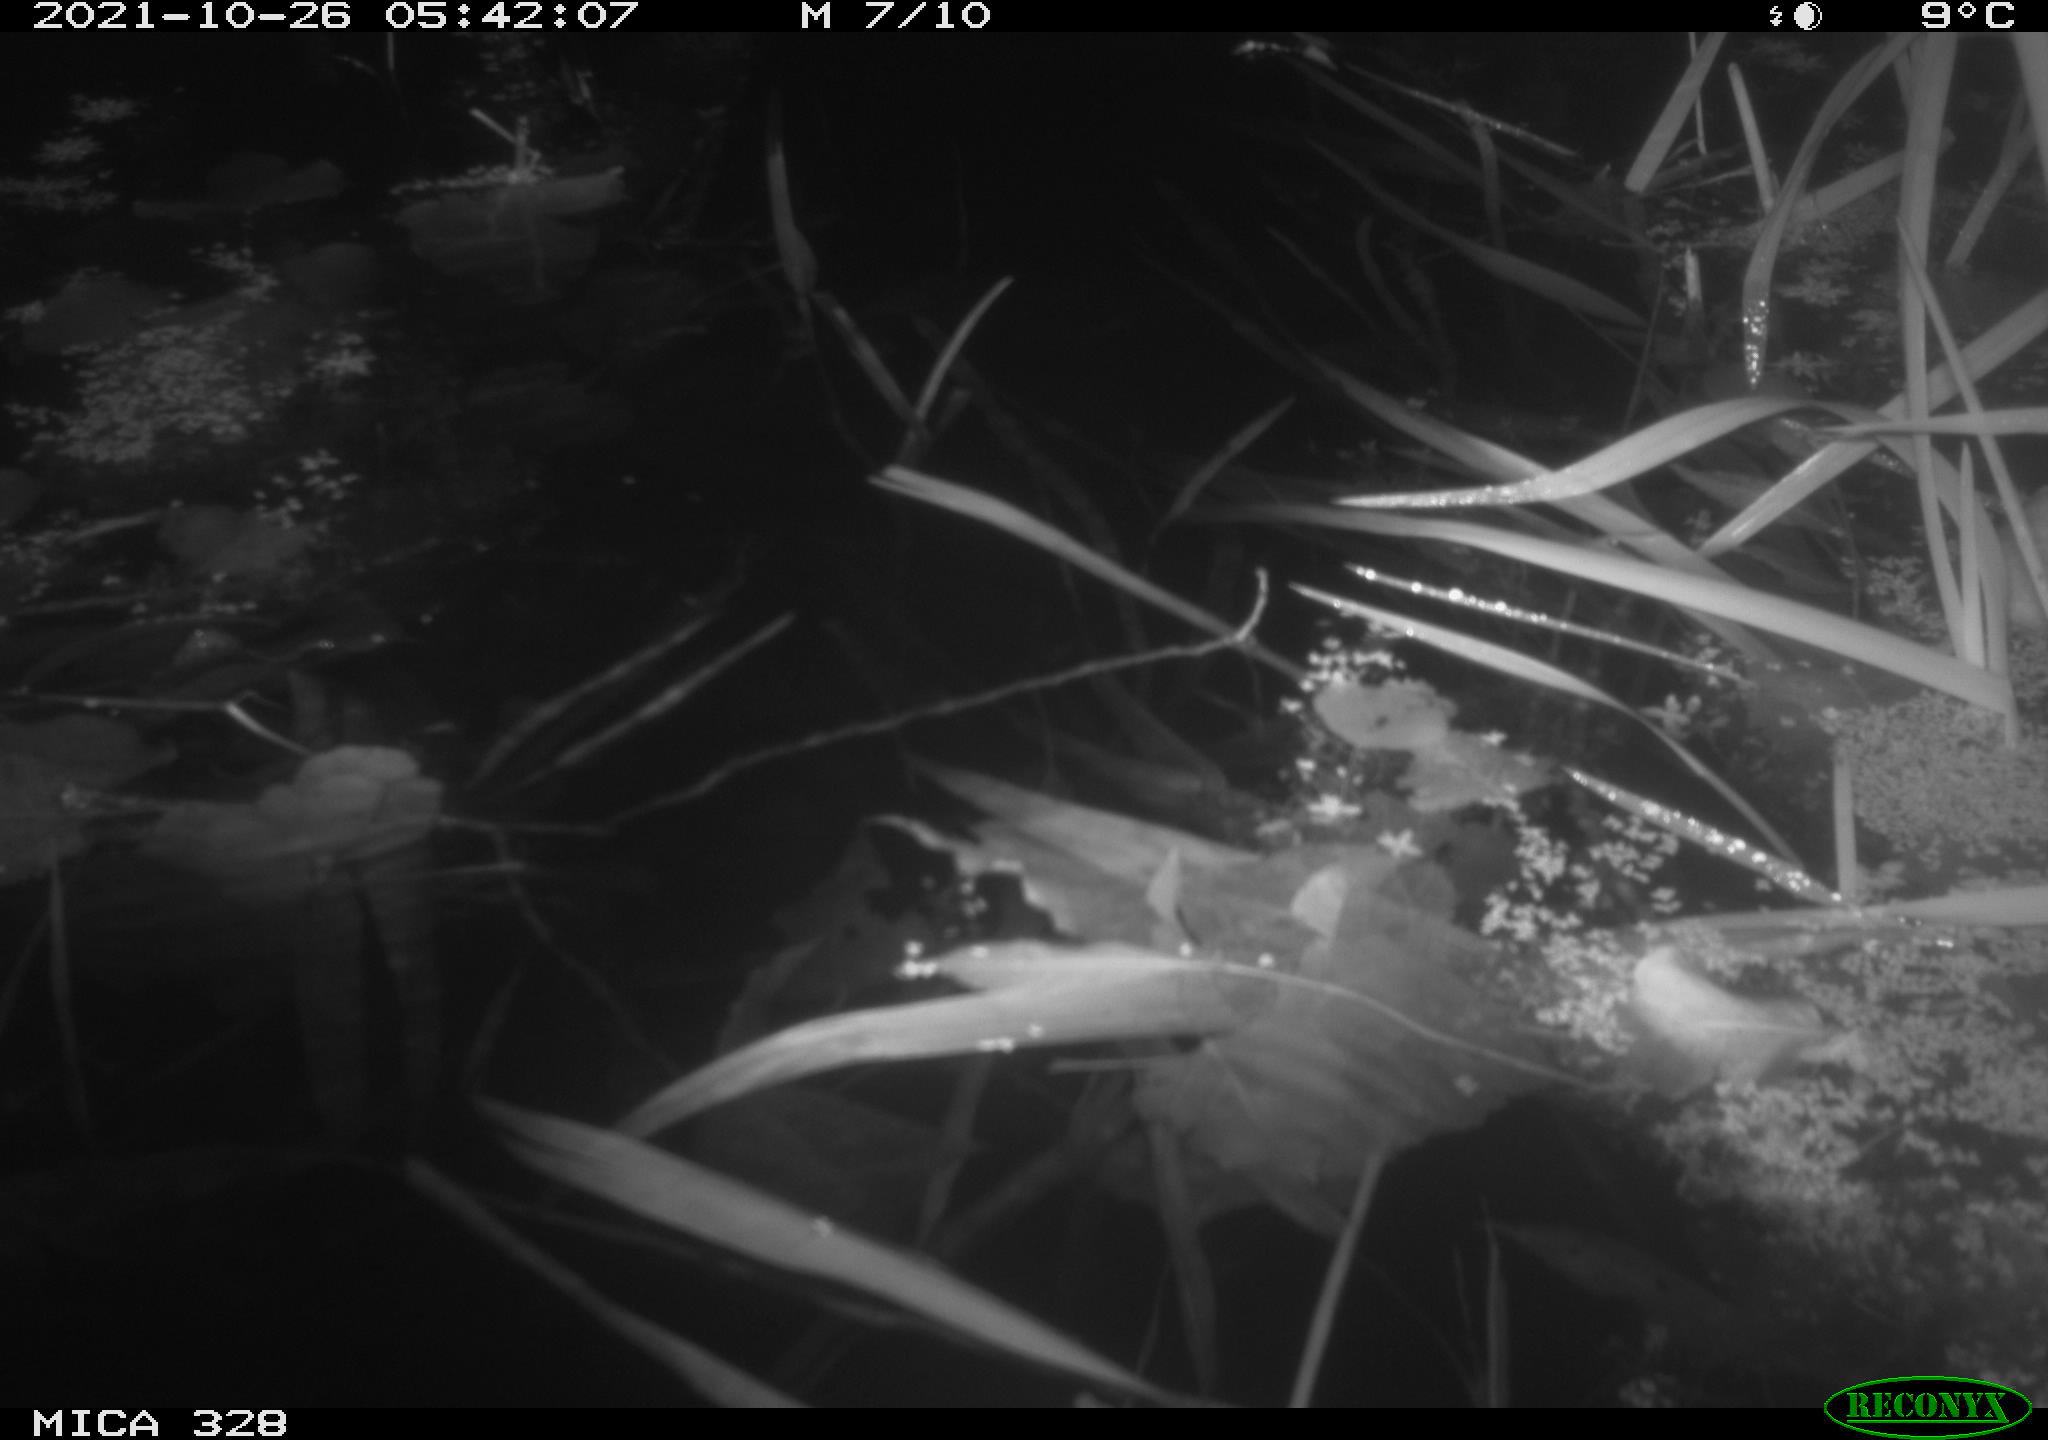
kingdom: Animalia
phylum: Chordata
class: Mammalia
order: Rodentia
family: Cricetidae
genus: Ondatra
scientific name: Ondatra zibethicus
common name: Muskrat
